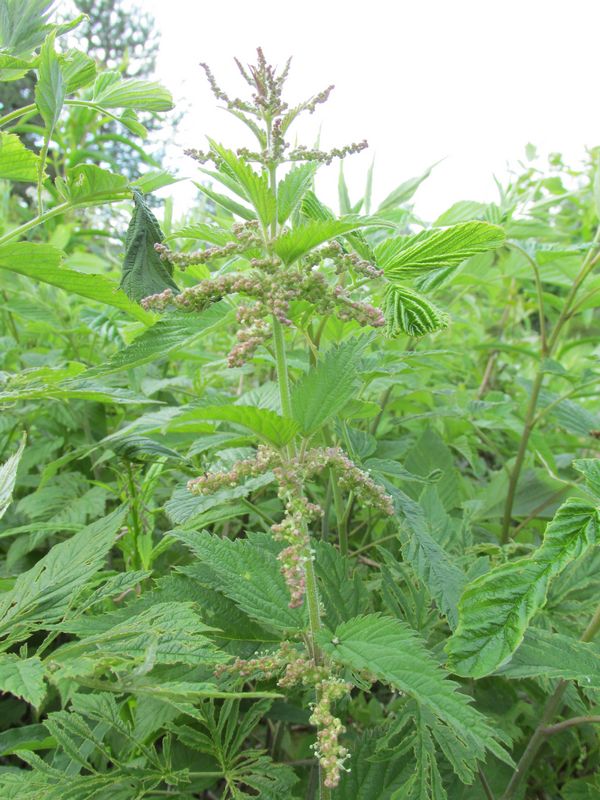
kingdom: Plantae
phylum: Tracheophyta
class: Magnoliopsida
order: Rosales
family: Urticaceae
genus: Urtica
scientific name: Urtica dioica
